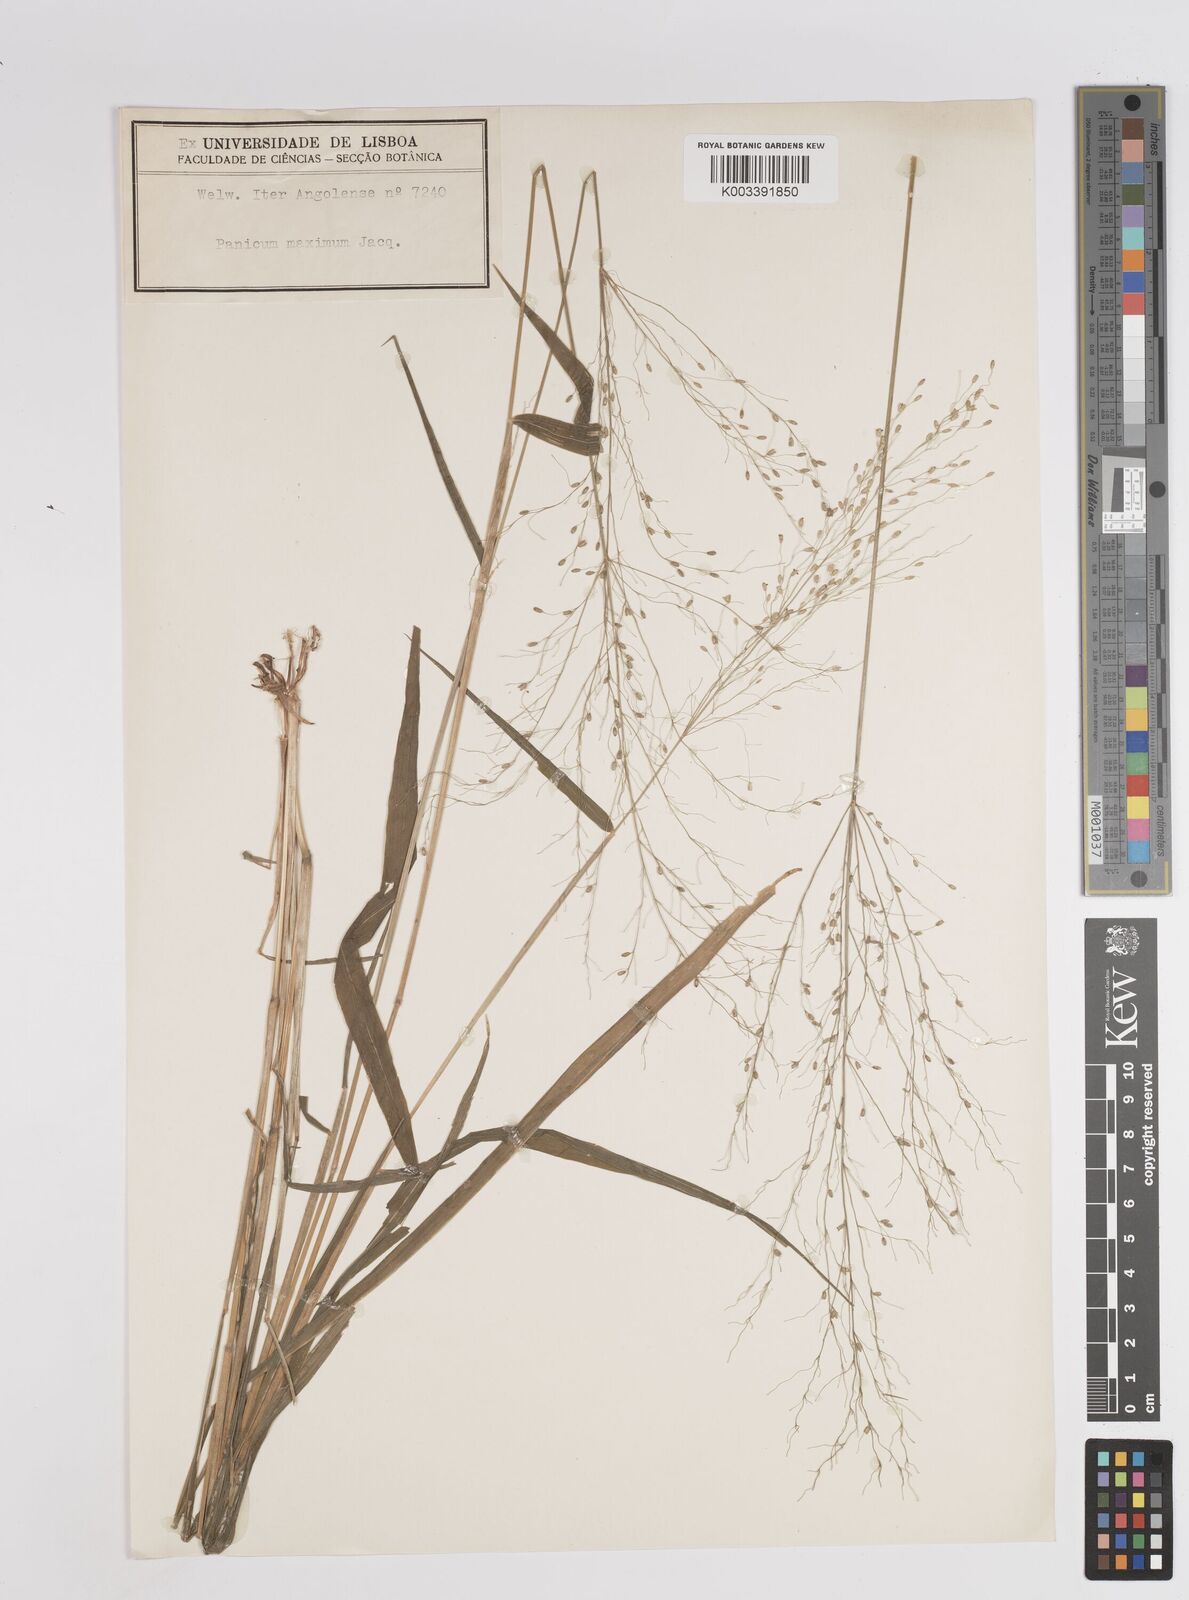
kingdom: Plantae
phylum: Tracheophyta
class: Liliopsida
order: Poales
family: Poaceae
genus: Megathyrsus
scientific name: Megathyrsus maximus
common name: Guineagrass
